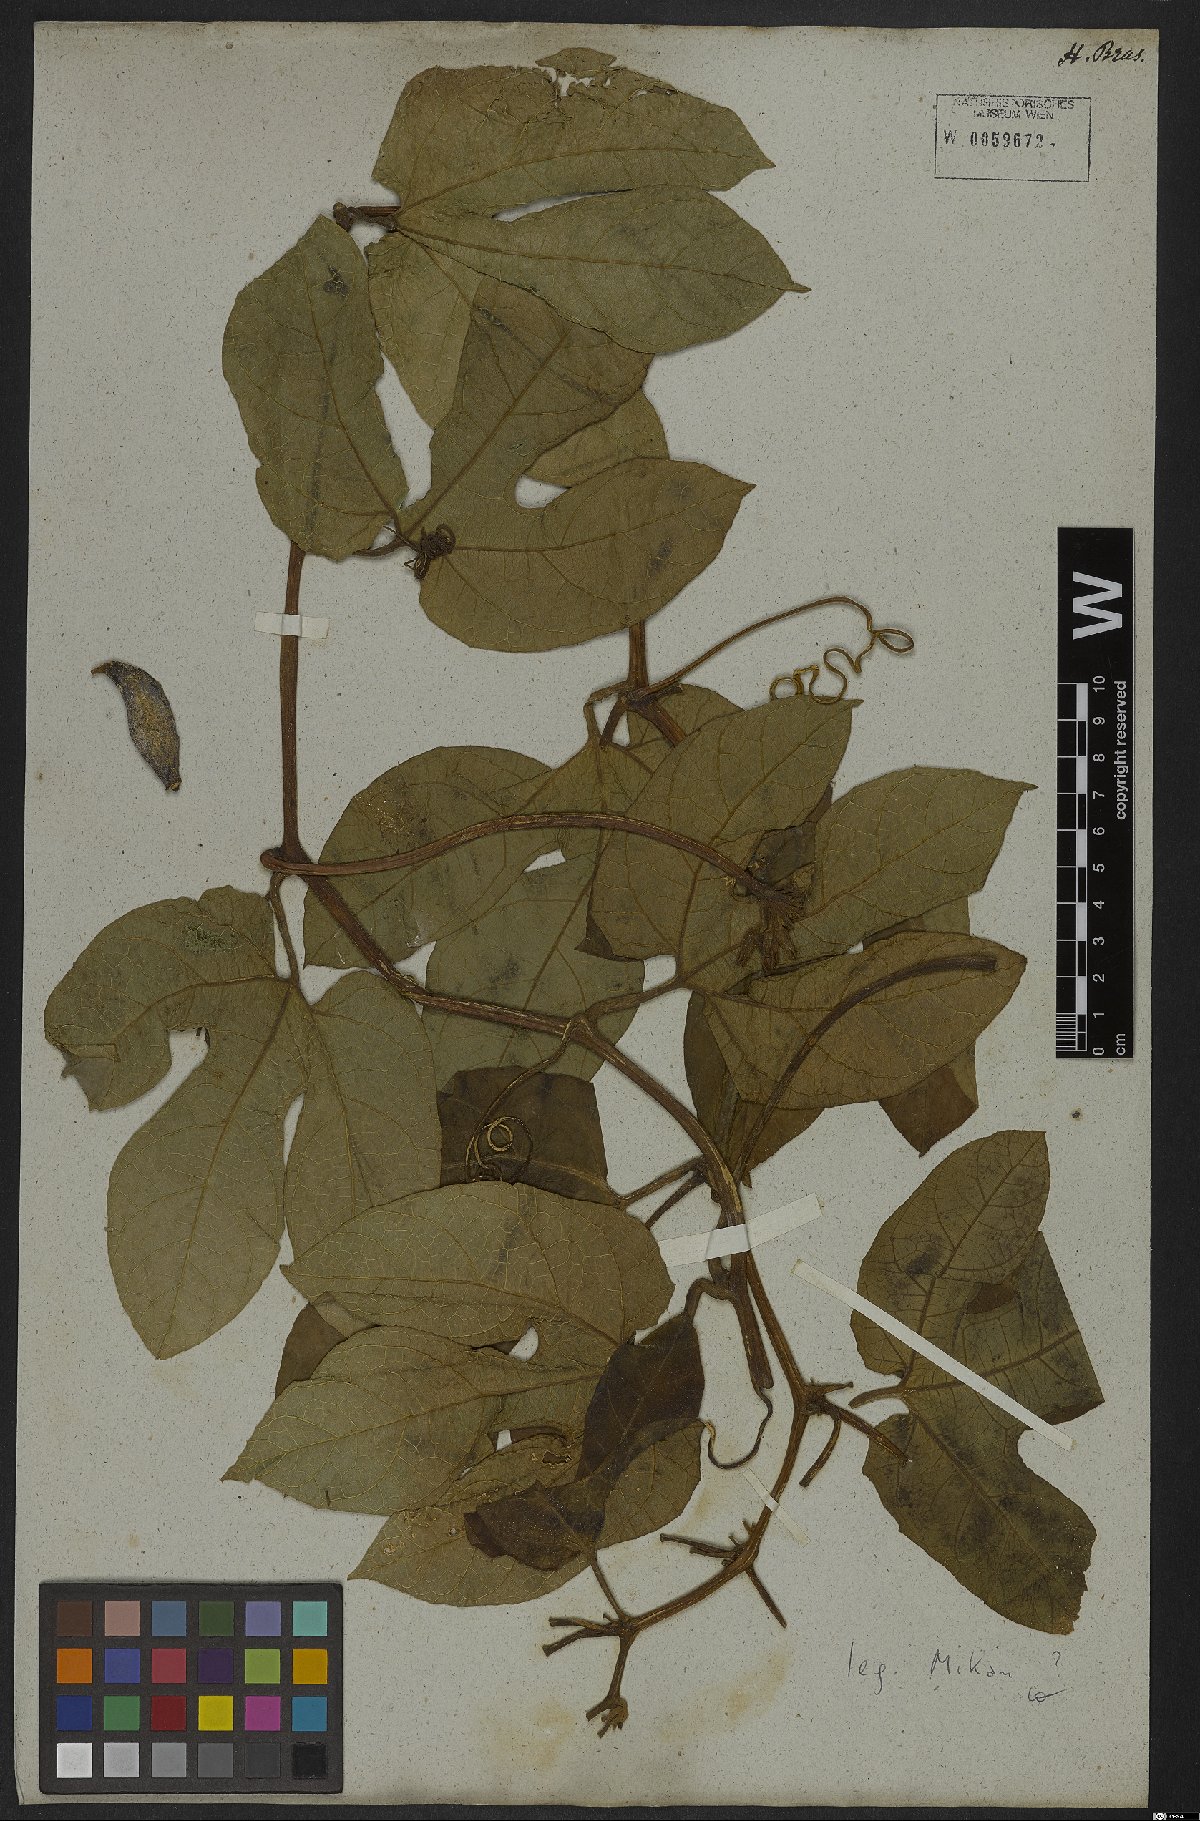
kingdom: Plantae
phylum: Tracheophyta
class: Magnoliopsida
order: Cucurbitales
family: Cucurbitaceae
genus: Gurania
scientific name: Gurania subumbellata
